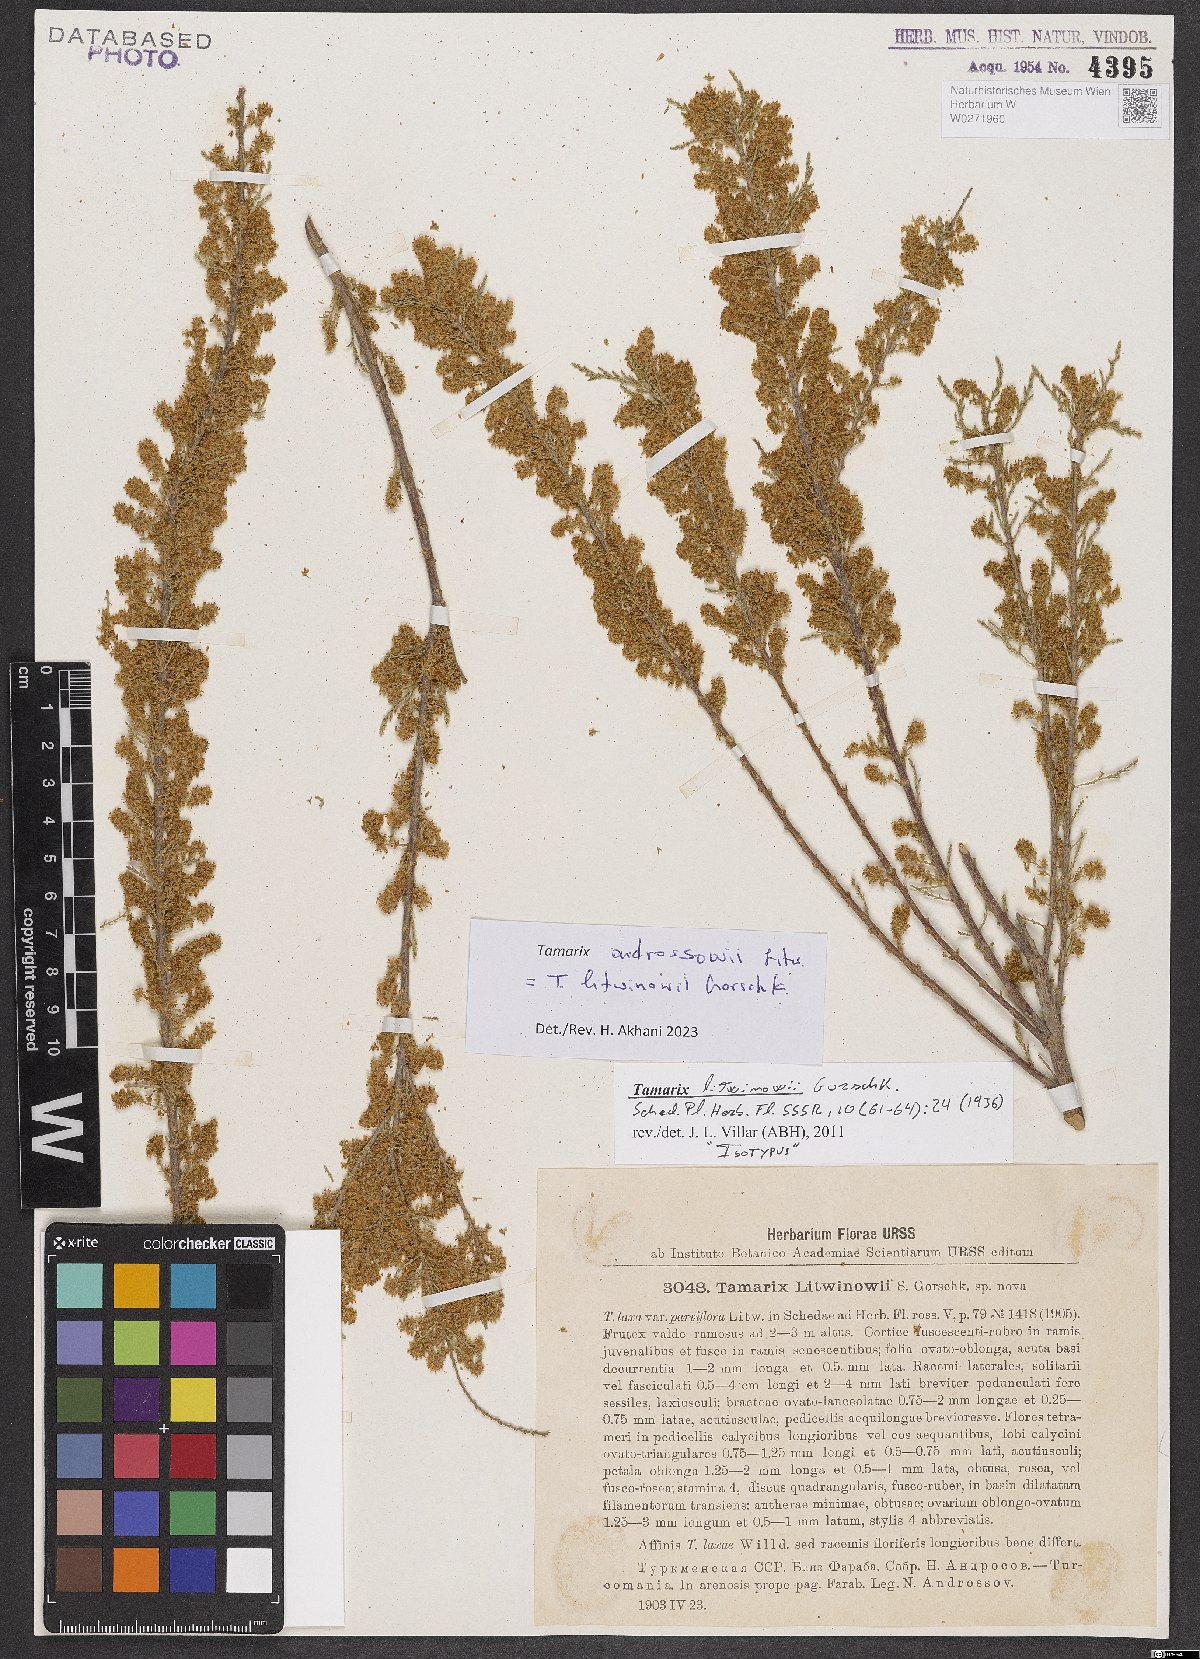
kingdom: Plantae
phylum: Tracheophyta
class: Magnoliopsida
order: Caryophyllales
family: Tamaricaceae
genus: Tamarix
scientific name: Tamarix litwinowii
